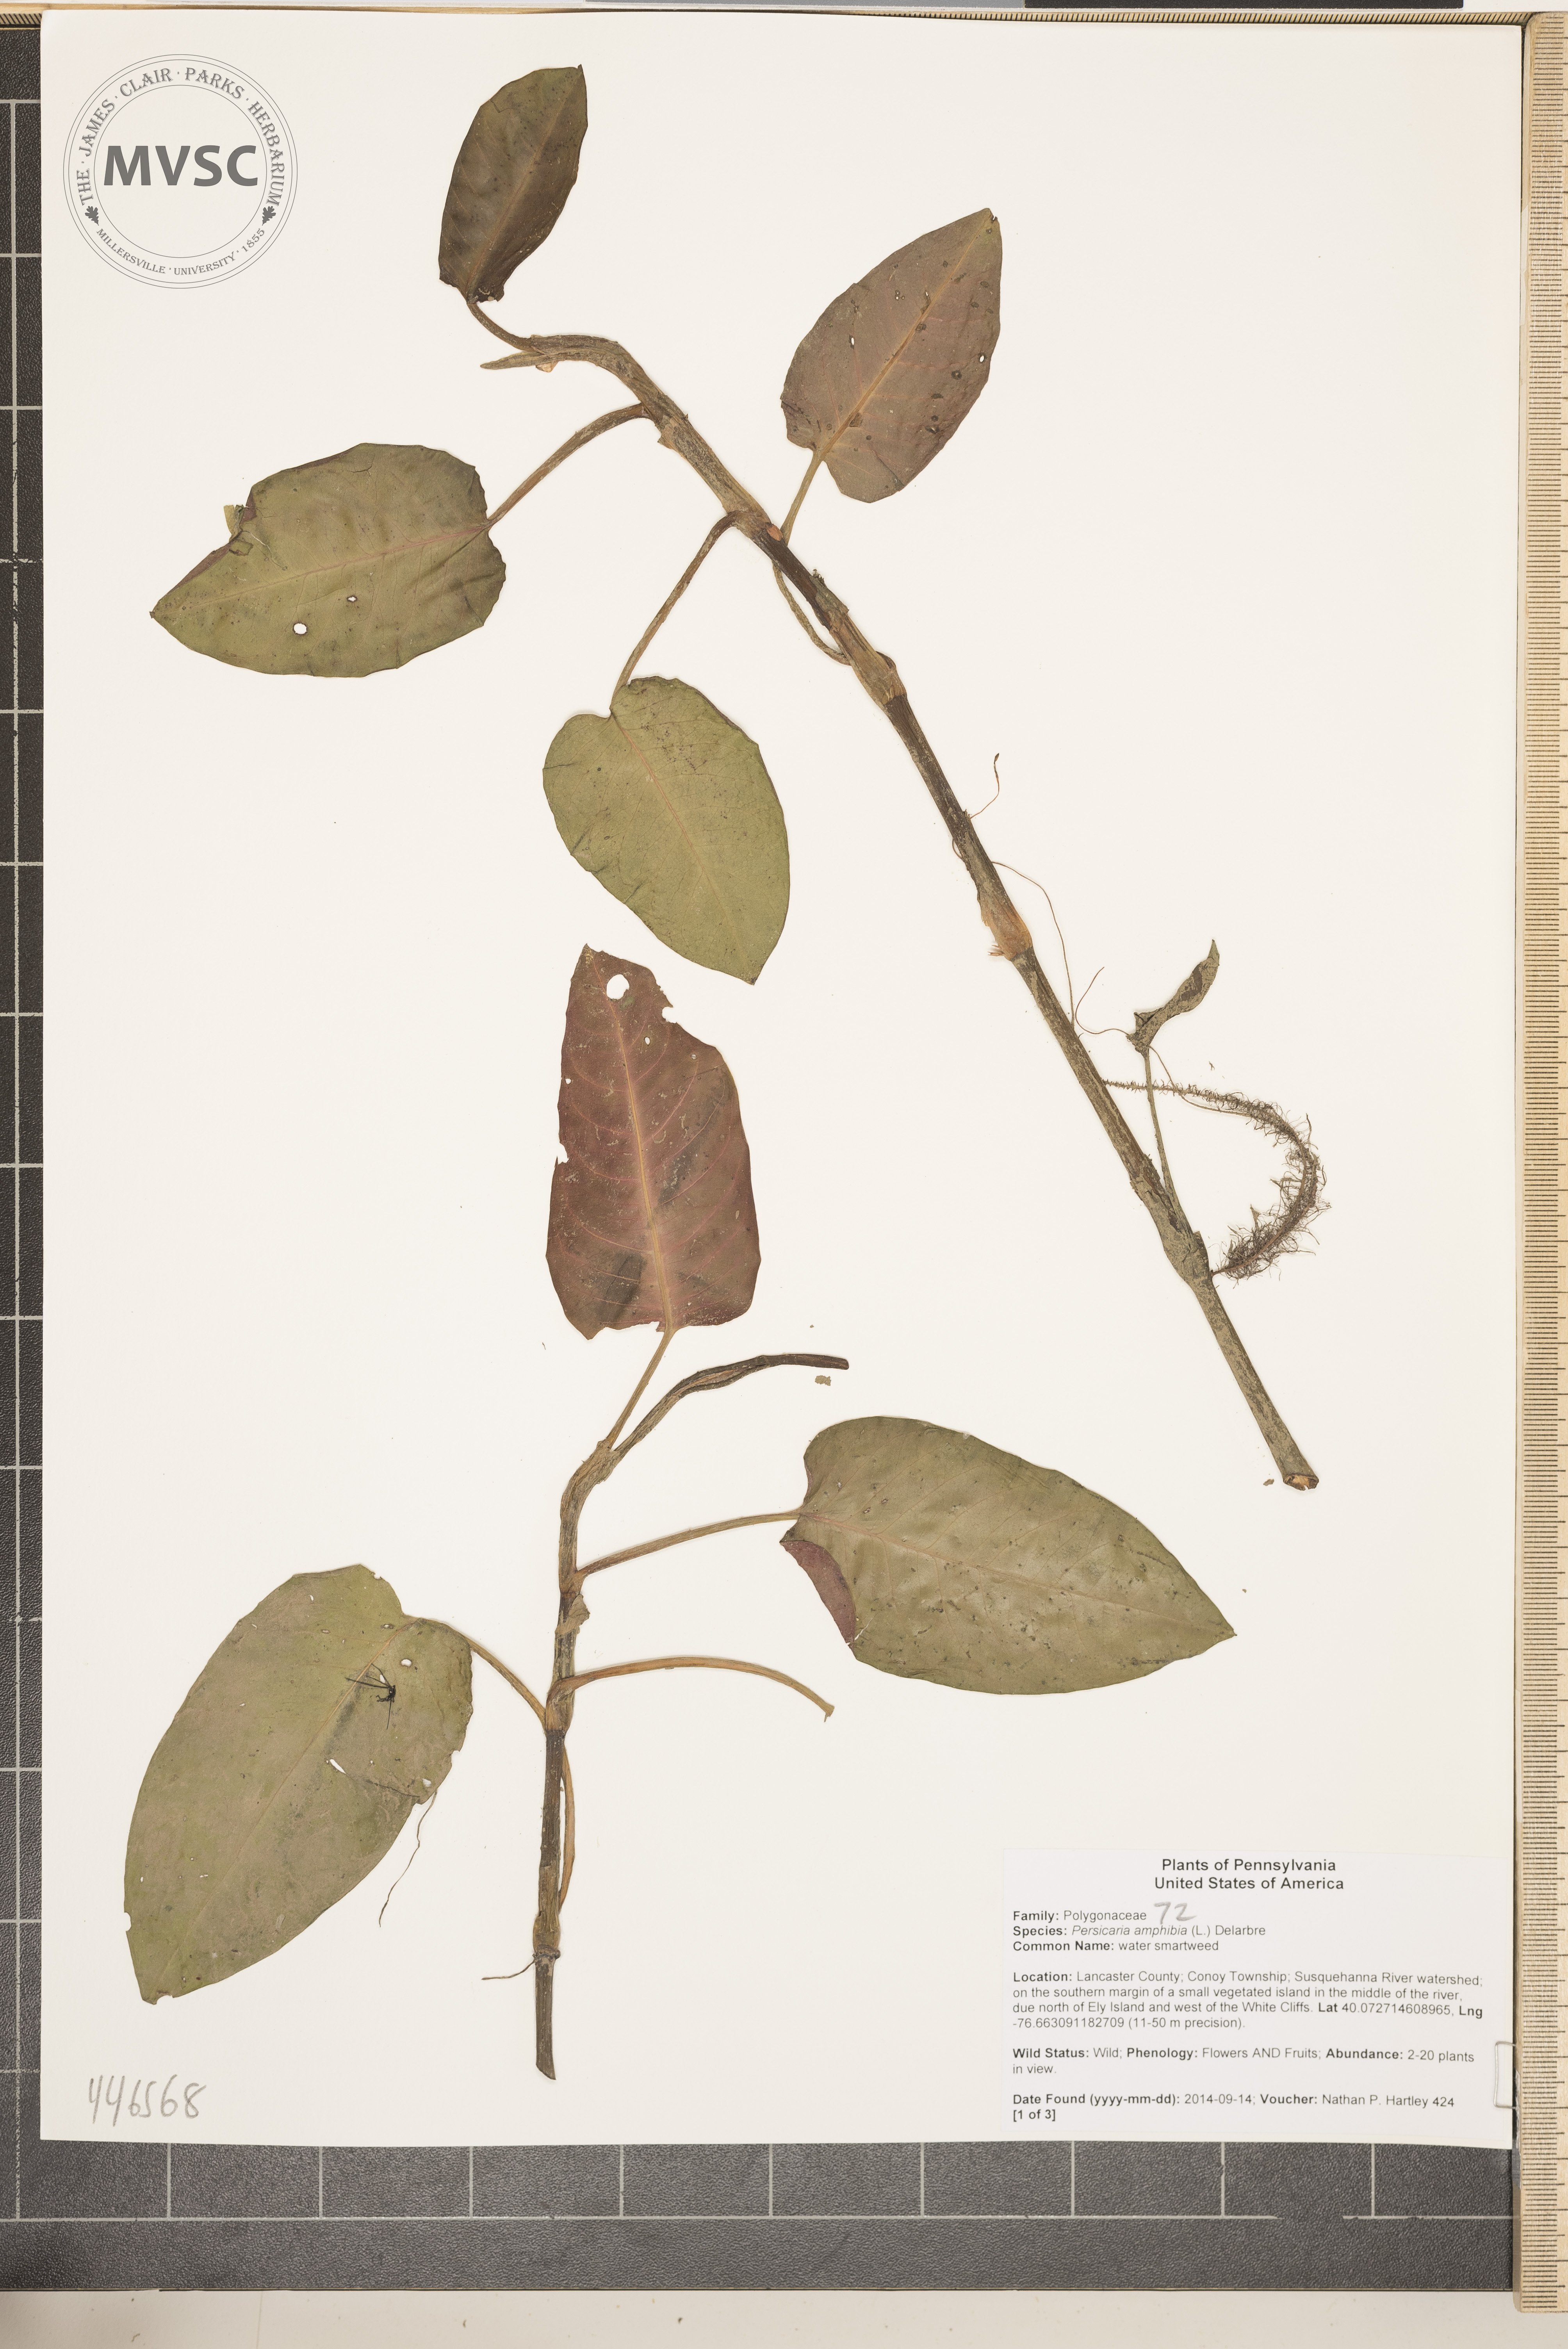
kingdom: Plantae
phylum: Tracheophyta
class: Magnoliopsida
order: Caryophyllales
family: Polygonaceae
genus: Persicaria
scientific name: Persicaria amphibia
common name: water smartweed
